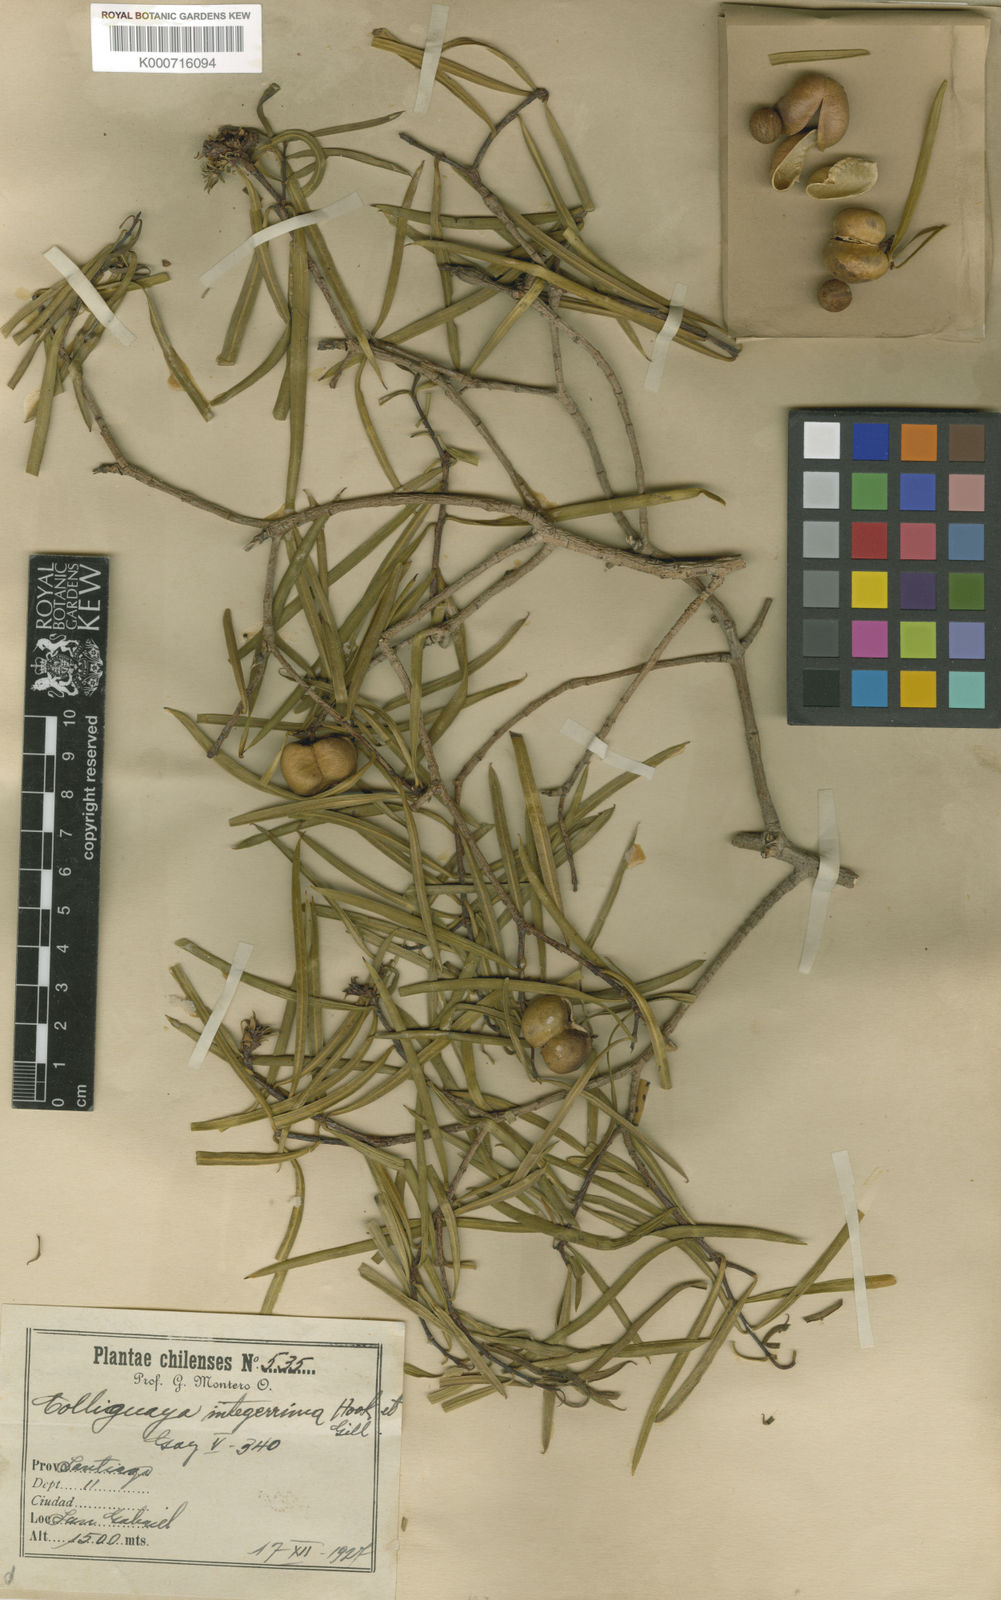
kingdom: Plantae
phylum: Tracheophyta
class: Magnoliopsida
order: Malpighiales
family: Euphorbiaceae
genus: Colliguaja
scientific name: Colliguaja integerrima
